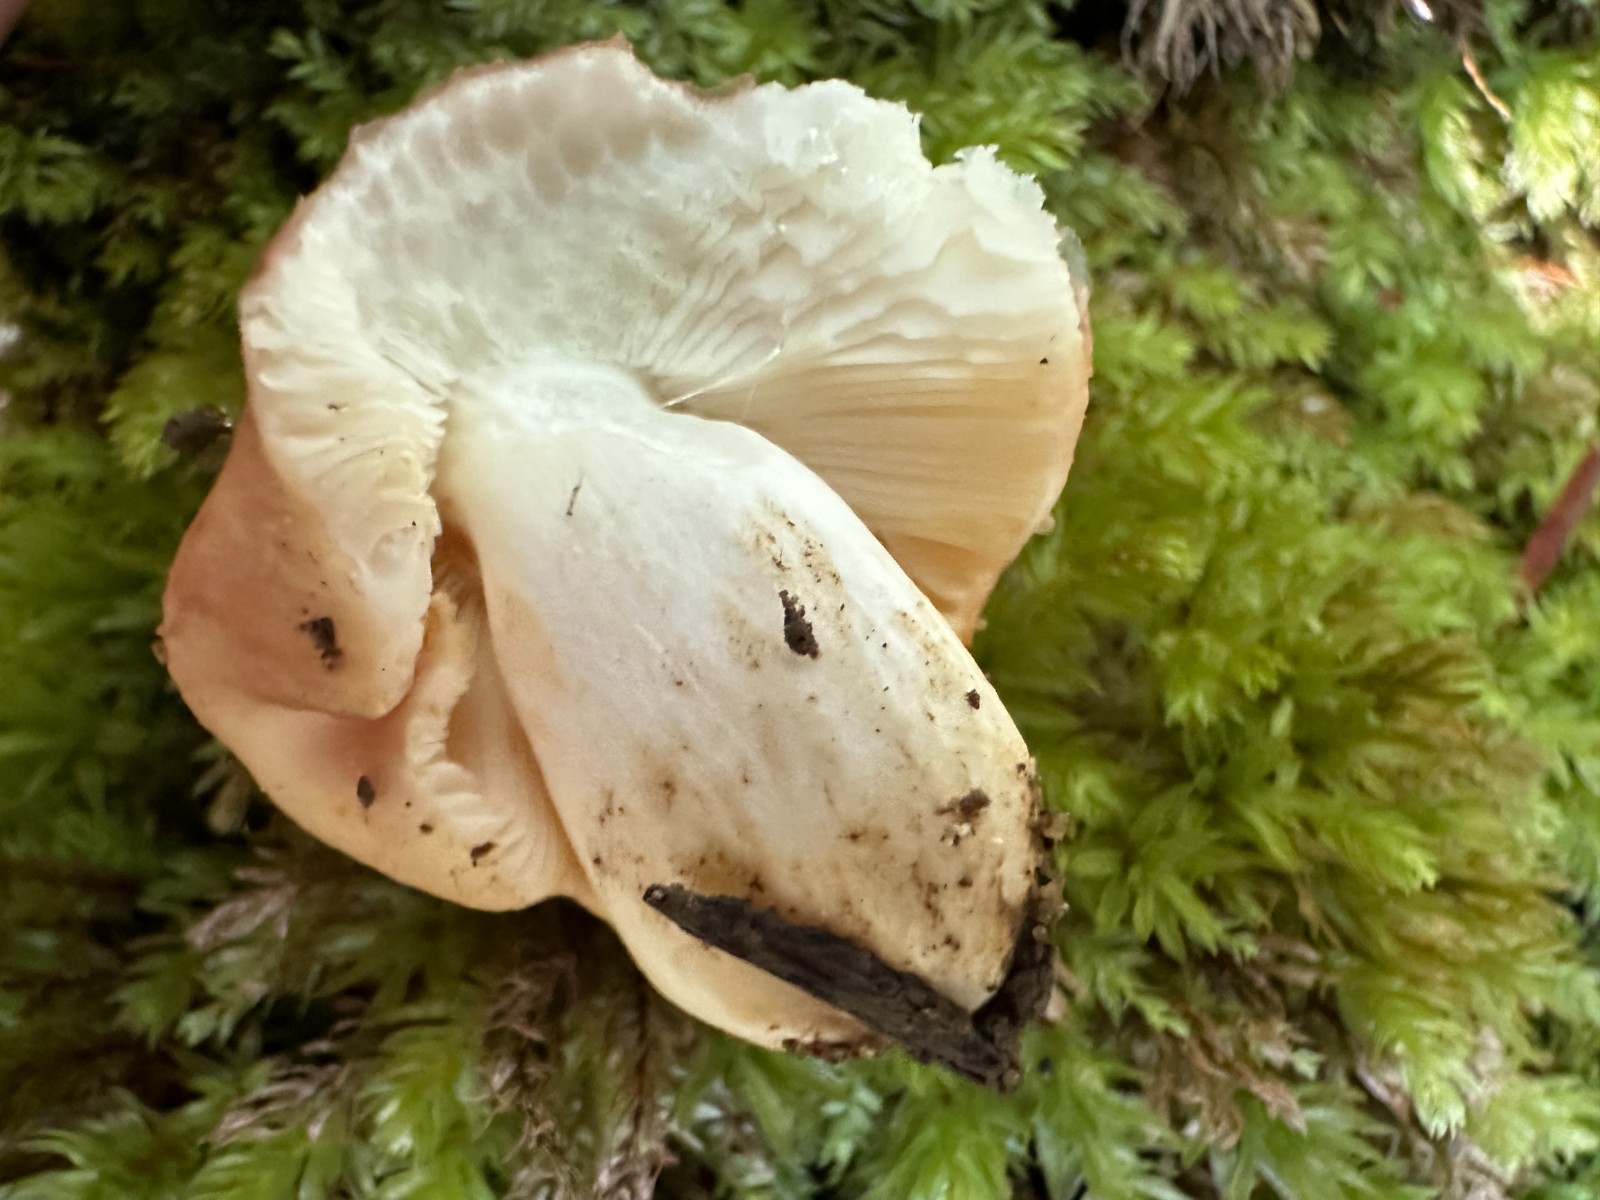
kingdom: Fungi
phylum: Basidiomycota
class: Agaricomycetes
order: Russulales
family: Russulaceae
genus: Russula
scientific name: Russula risigallina
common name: abrikos-skørhat
